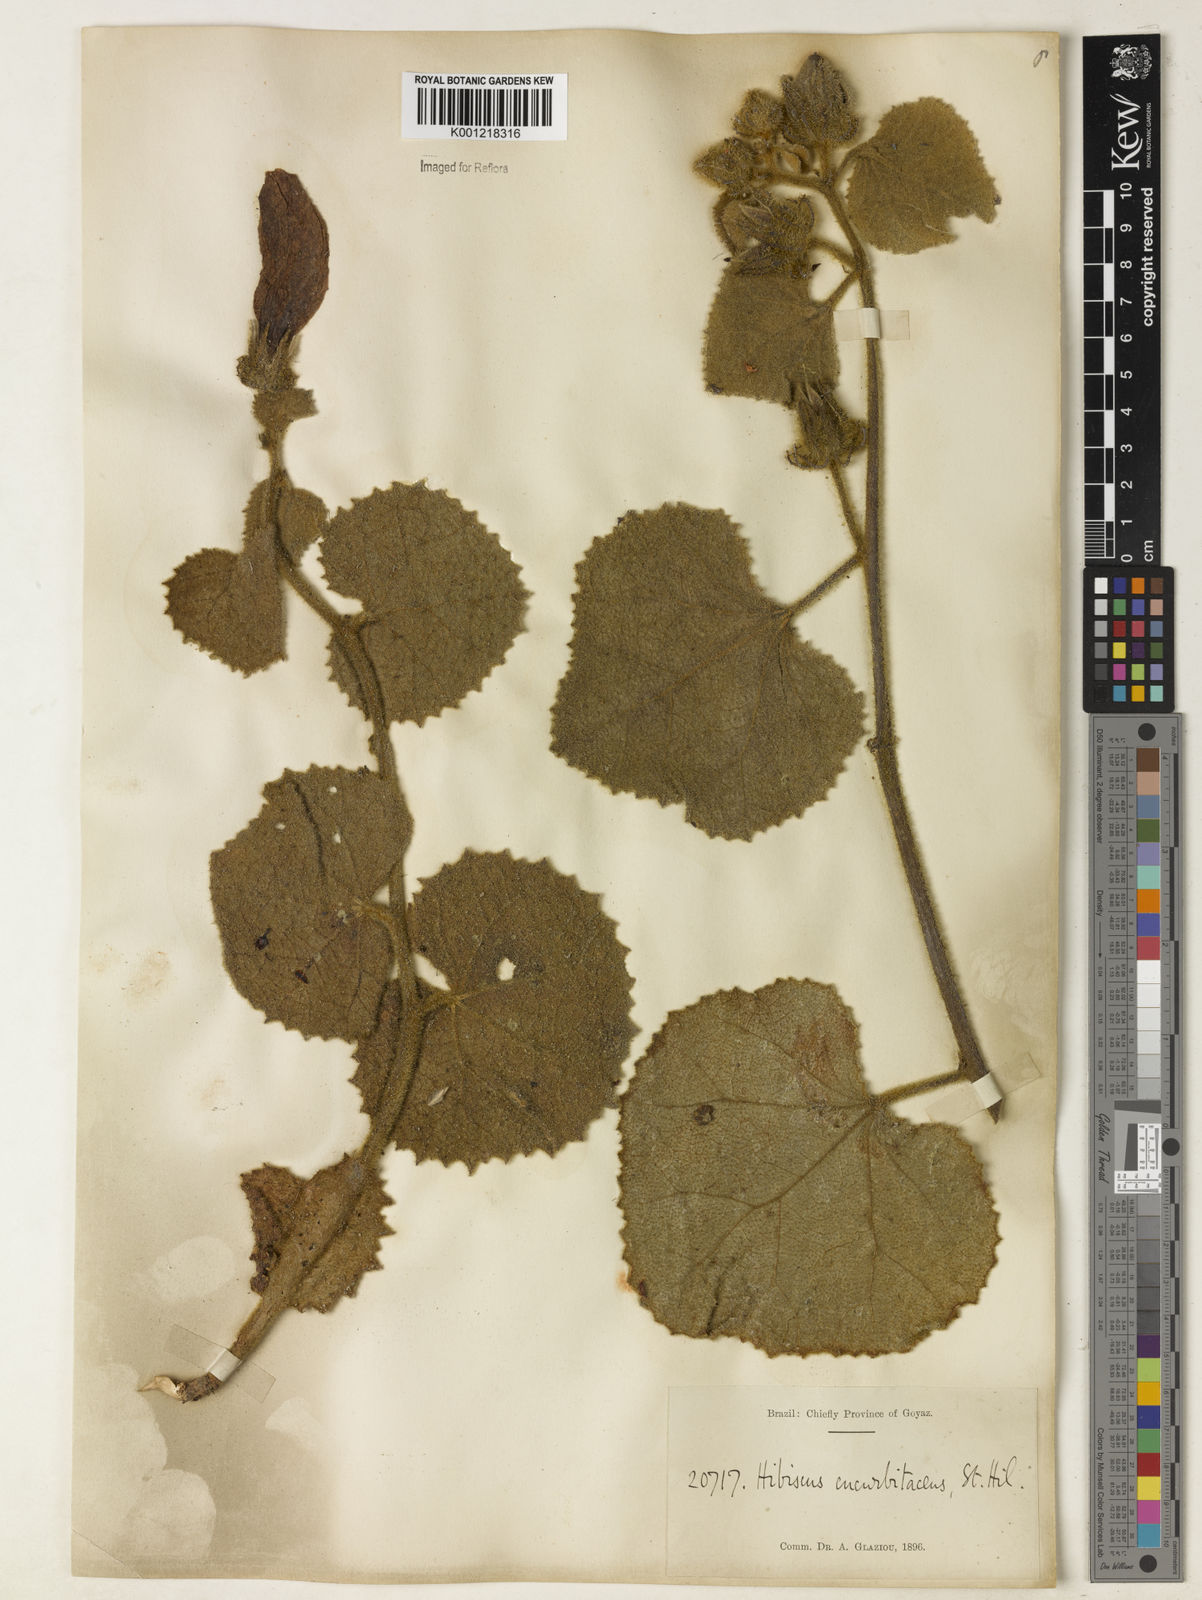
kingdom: Plantae
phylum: Tracheophyta
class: Magnoliopsida
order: Malvales
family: Malvaceae
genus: Hibiscus
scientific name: Hibiscus cucurbitaceus
